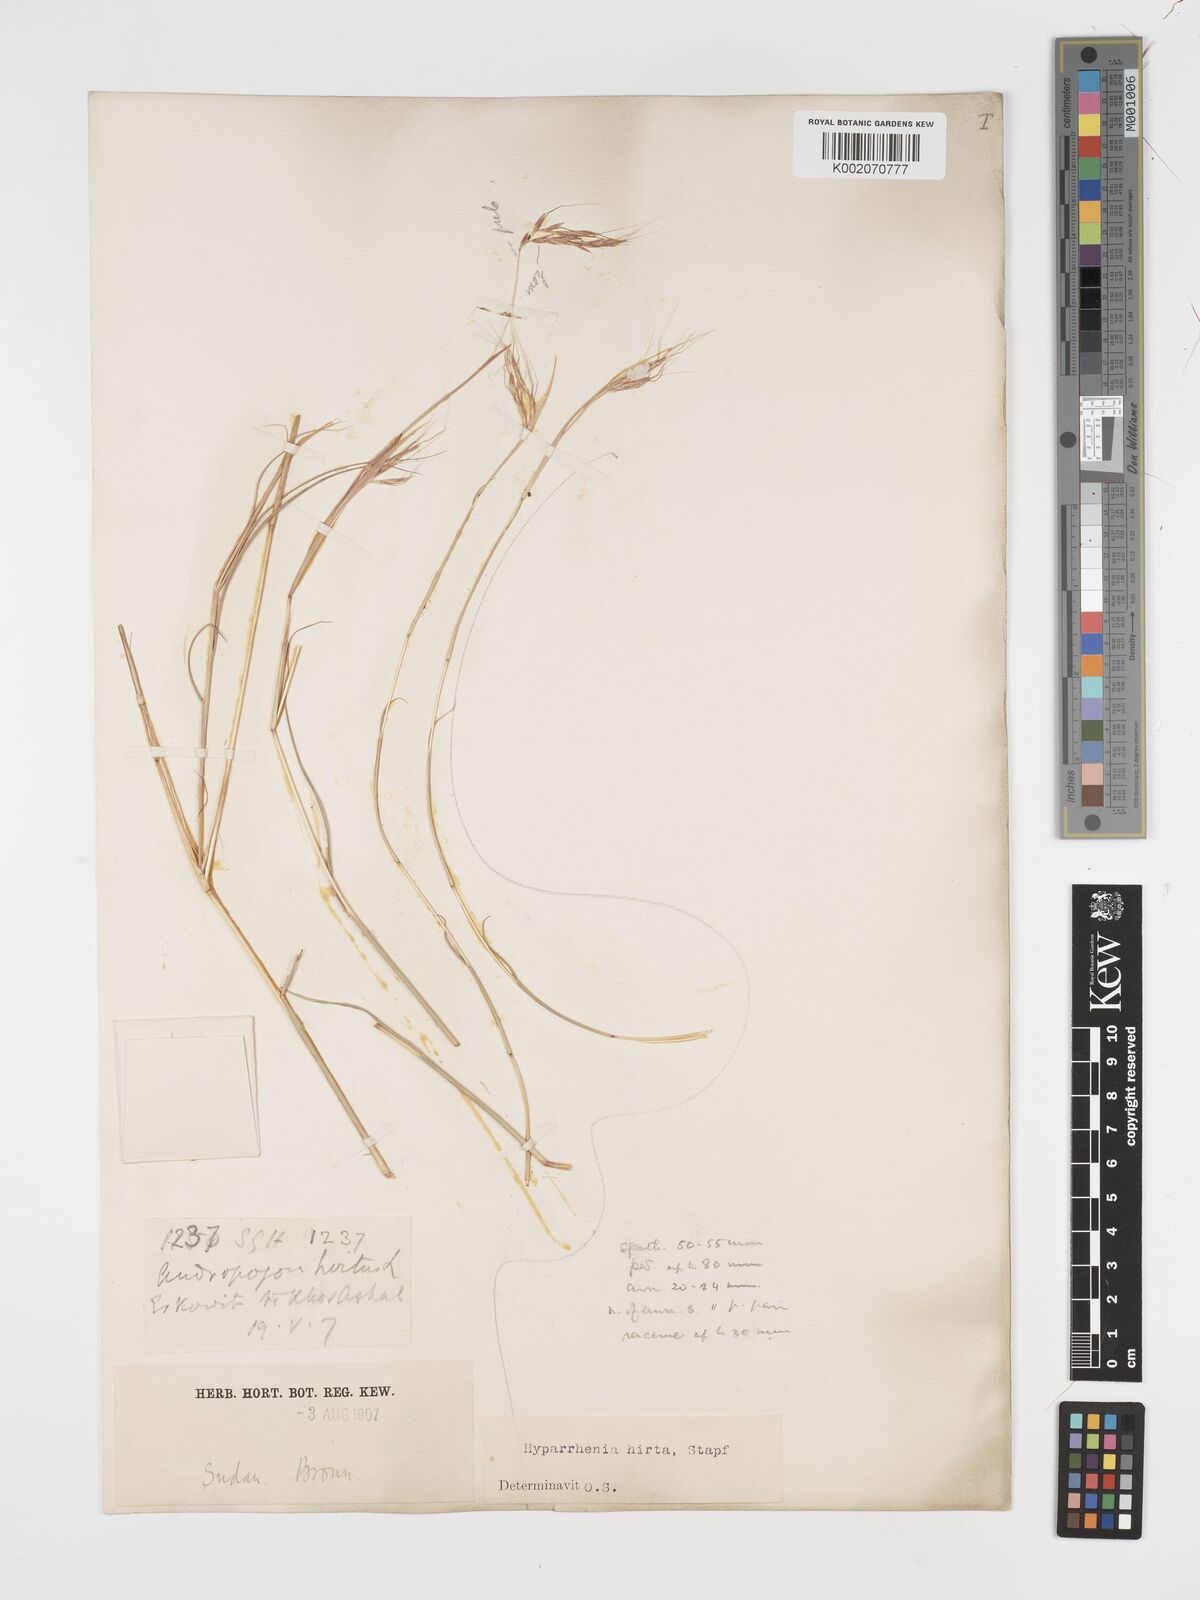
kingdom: Plantae
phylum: Tracheophyta
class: Liliopsida
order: Poales
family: Poaceae
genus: Hyparrhenia
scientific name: Hyparrhenia hirta
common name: Thatching grass
